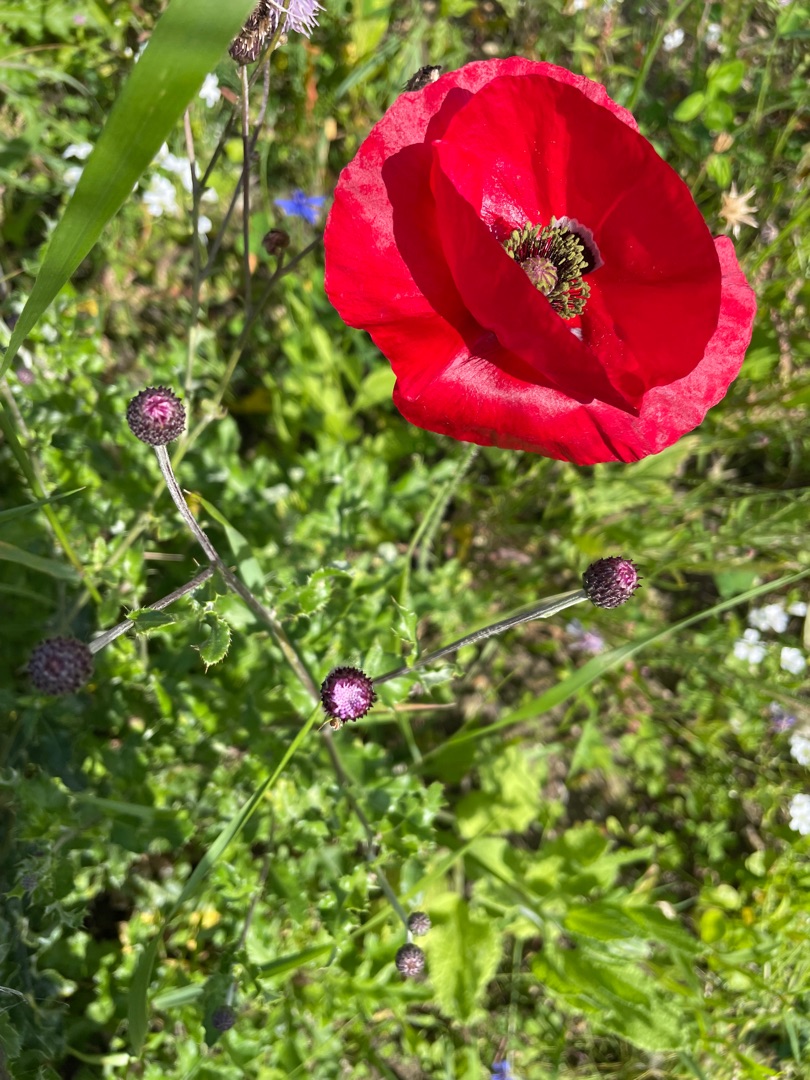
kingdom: Plantae
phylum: Tracheophyta
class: Magnoliopsida
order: Ranunculales
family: Papaveraceae
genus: Papaver
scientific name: Papaver rhoeas
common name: Korn-valmue
